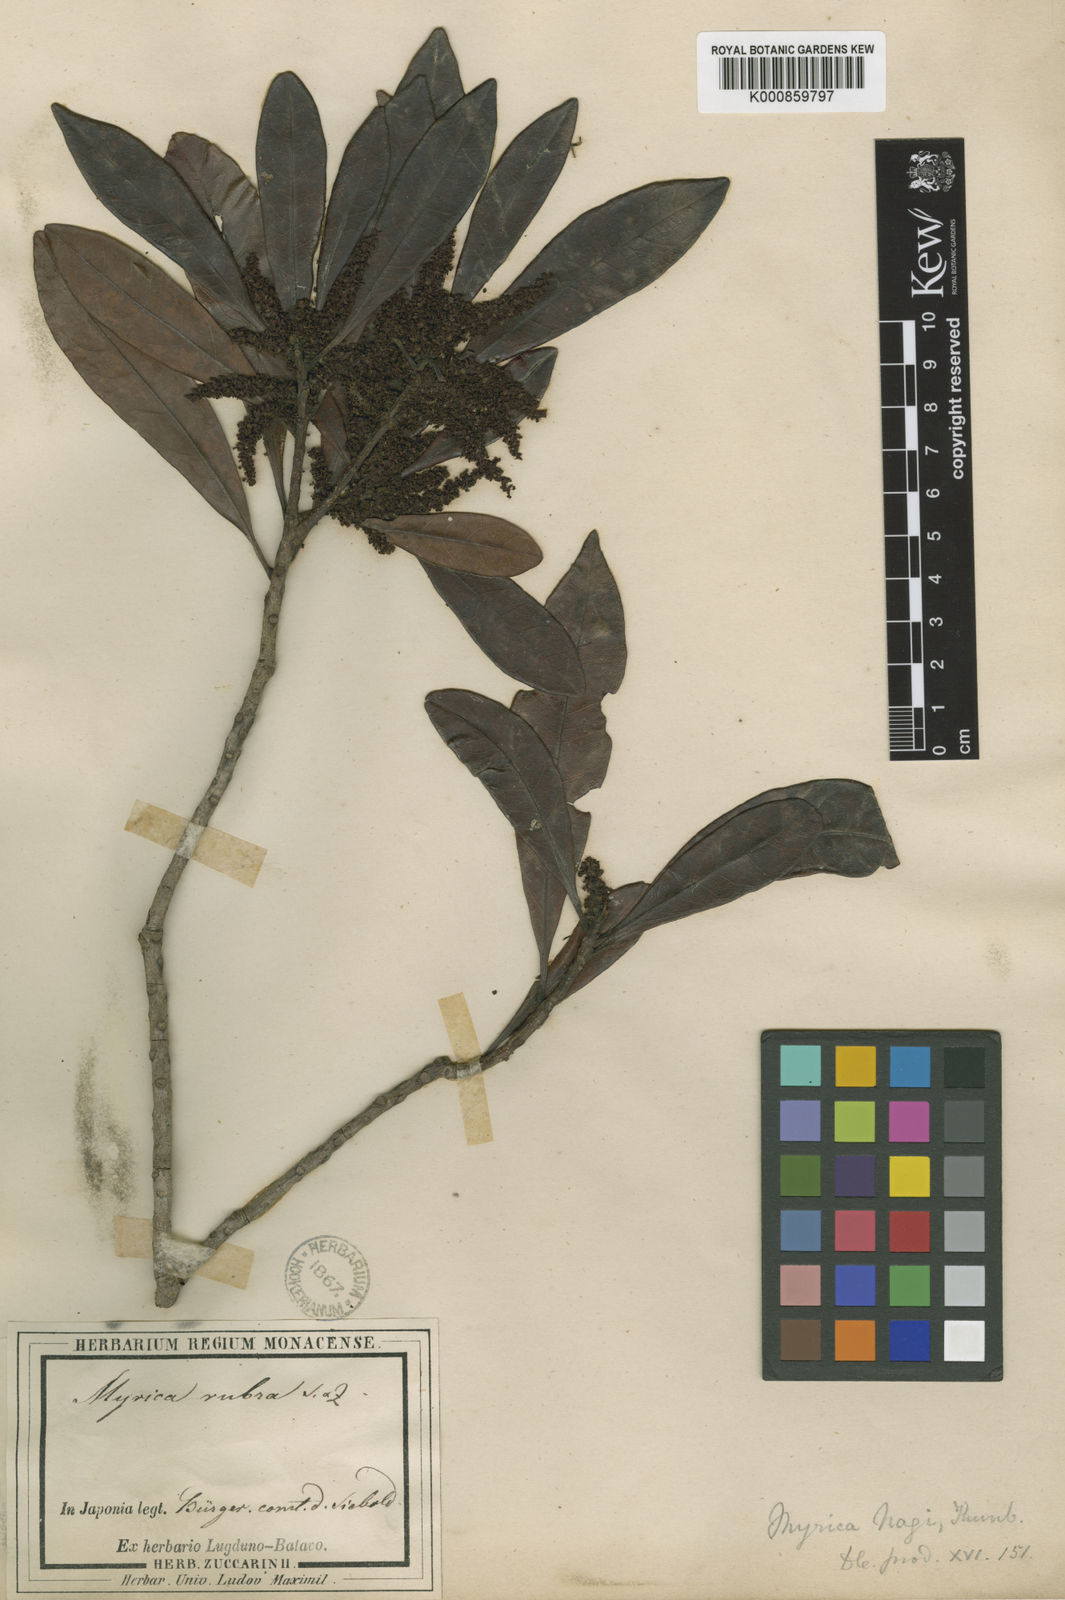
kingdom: Plantae
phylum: Tracheophyta
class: Magnoliopsida
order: Fagales
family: Myricaceae
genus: Morella
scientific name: Morella rubra
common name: Red bayberry
